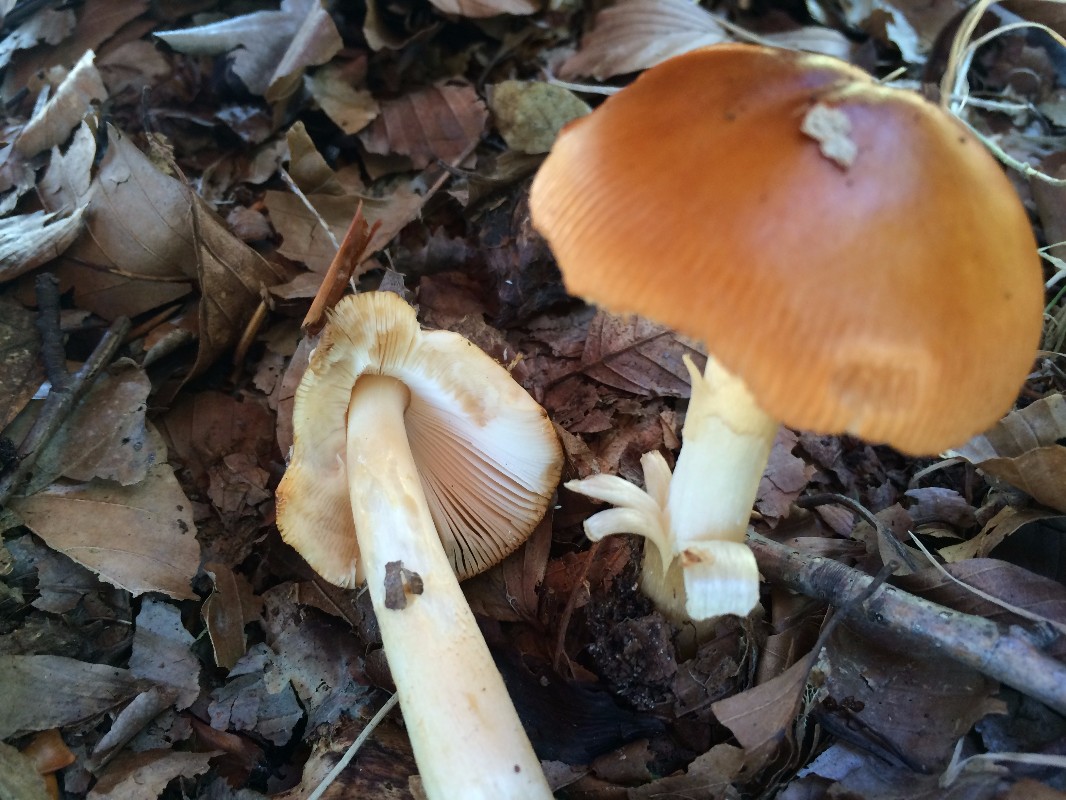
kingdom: Fungi
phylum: Basidiomycota
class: Agaricomycetes
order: Agaricales
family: Amanitaceae
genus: Amanita
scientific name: Amanita fulva
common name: brun kam-fluesvamp
